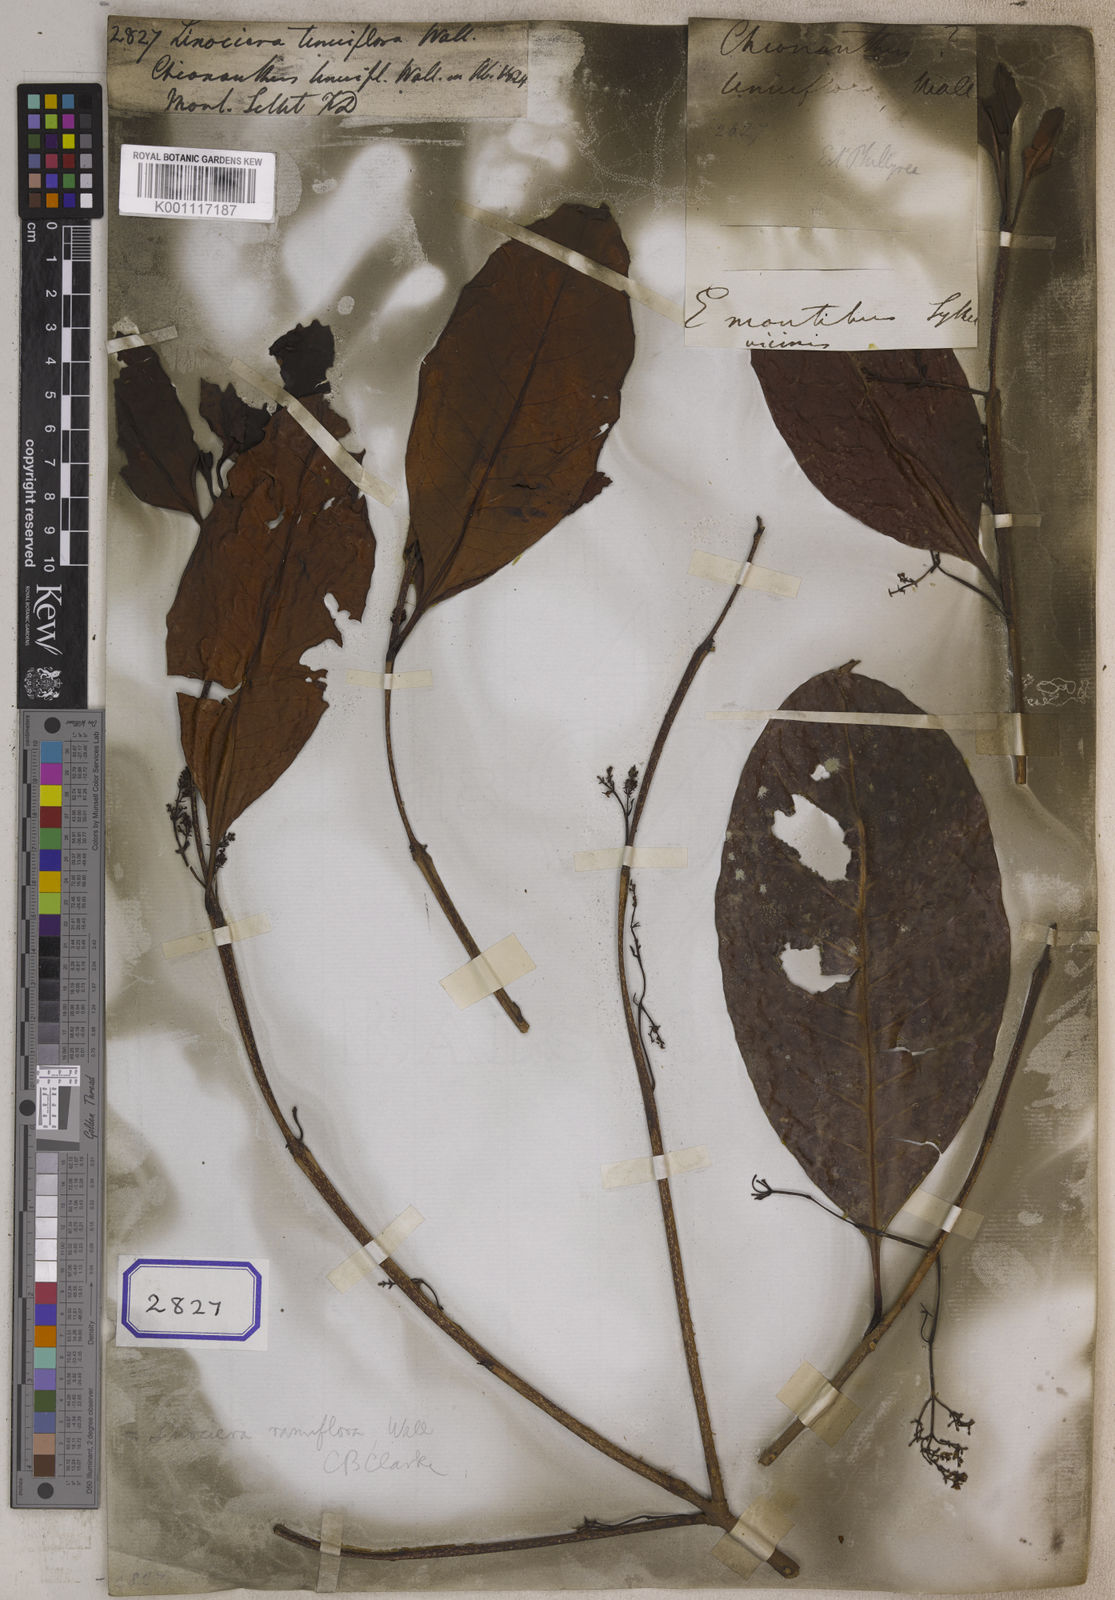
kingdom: Plantae
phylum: Tracheophyta
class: Magnoliopsida
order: Lamiales
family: Oleaceae
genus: Chionanthus
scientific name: Chionanthus
